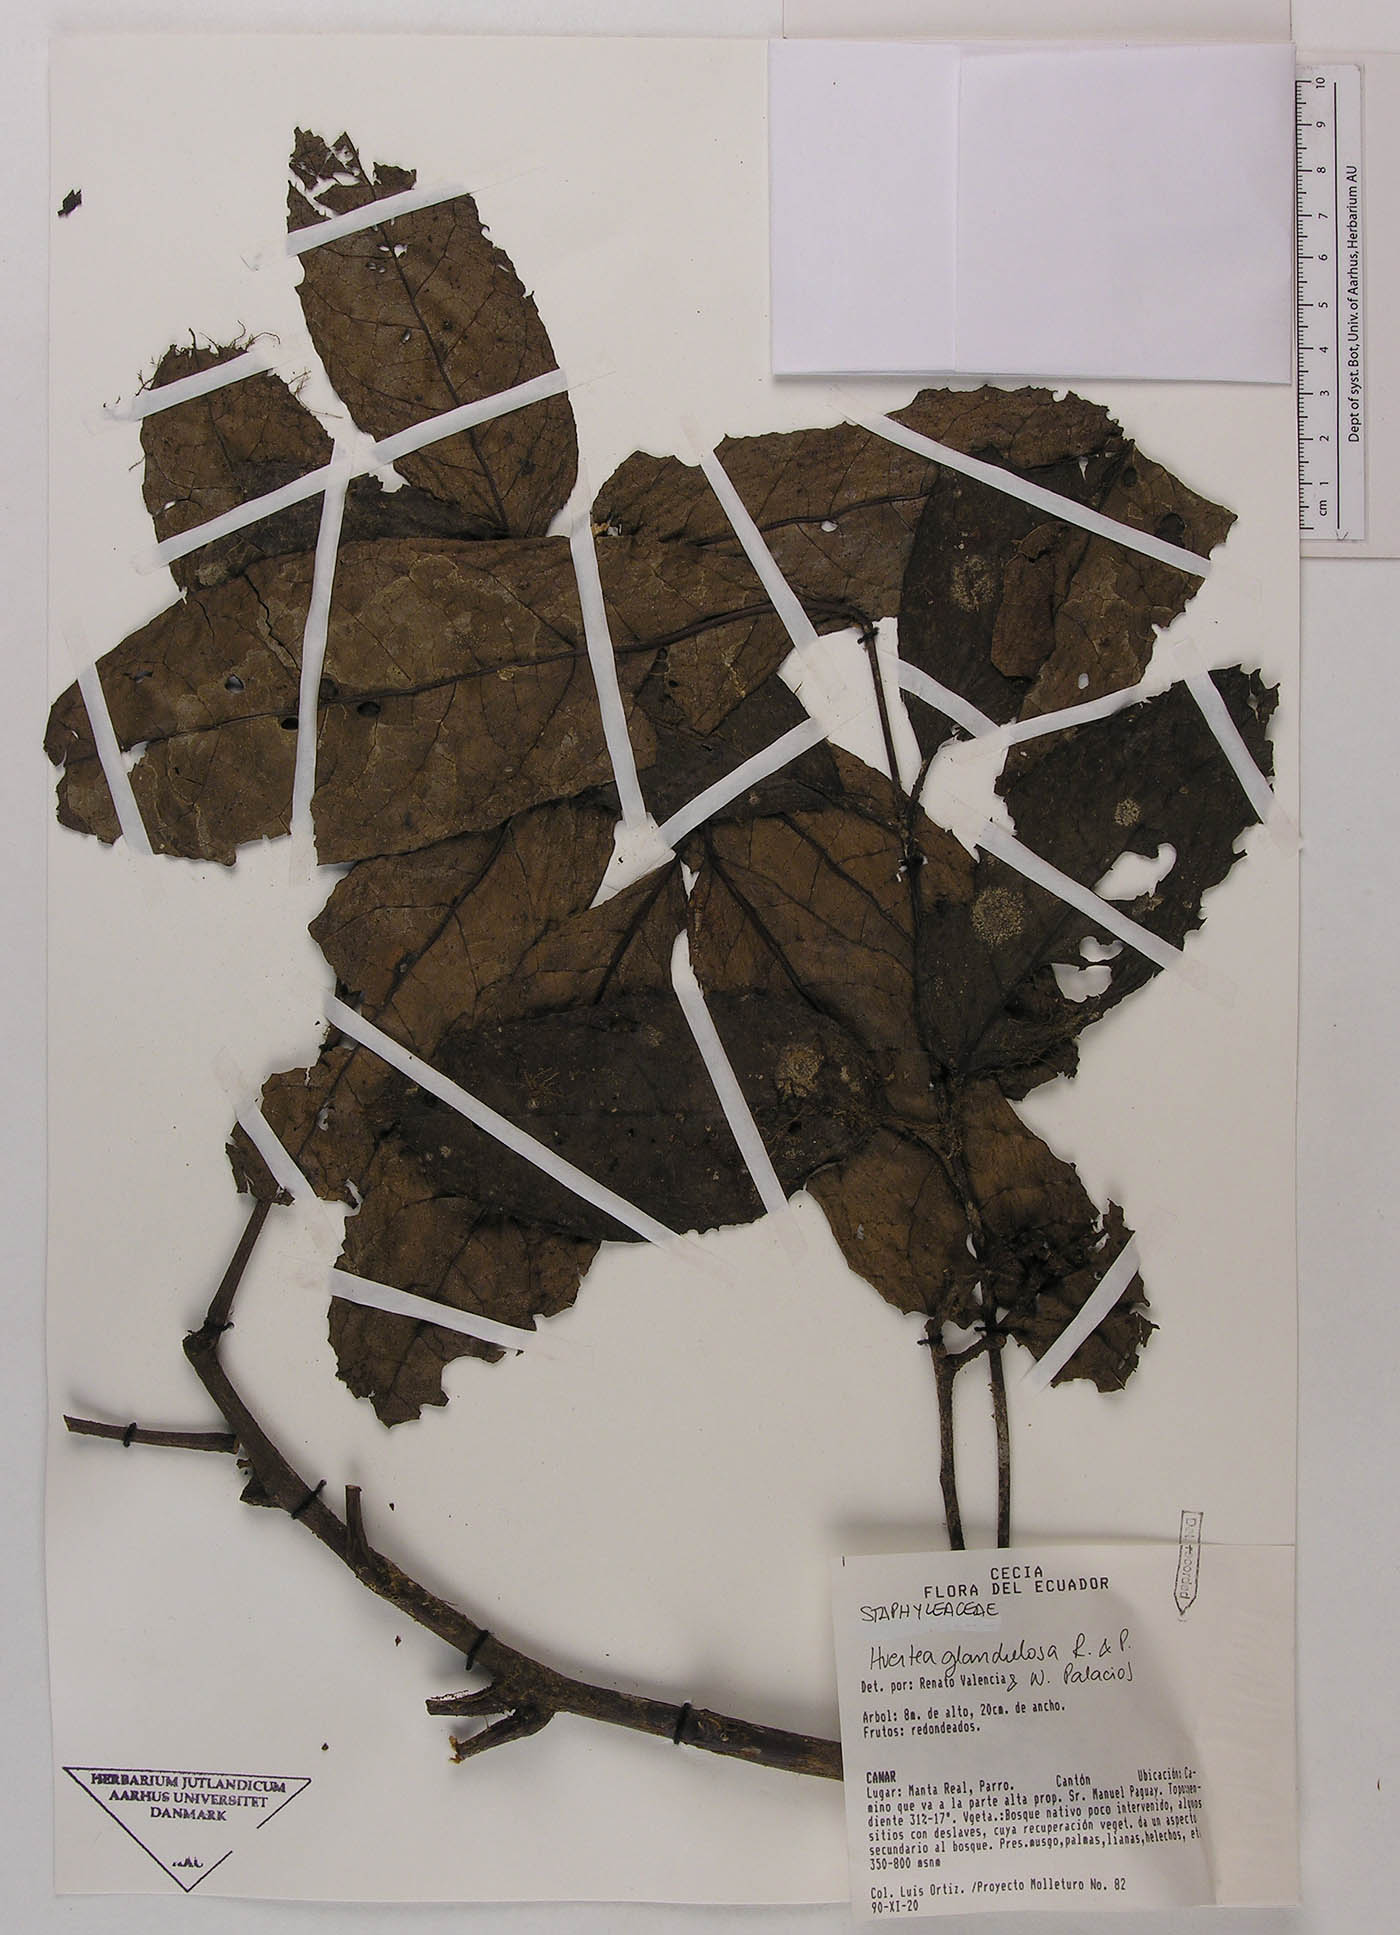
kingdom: Plantae
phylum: Tracheophyta
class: Magnoliopsida
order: Huerteales
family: Tapisciaceae
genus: Huertea
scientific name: Huertea glandulosa
